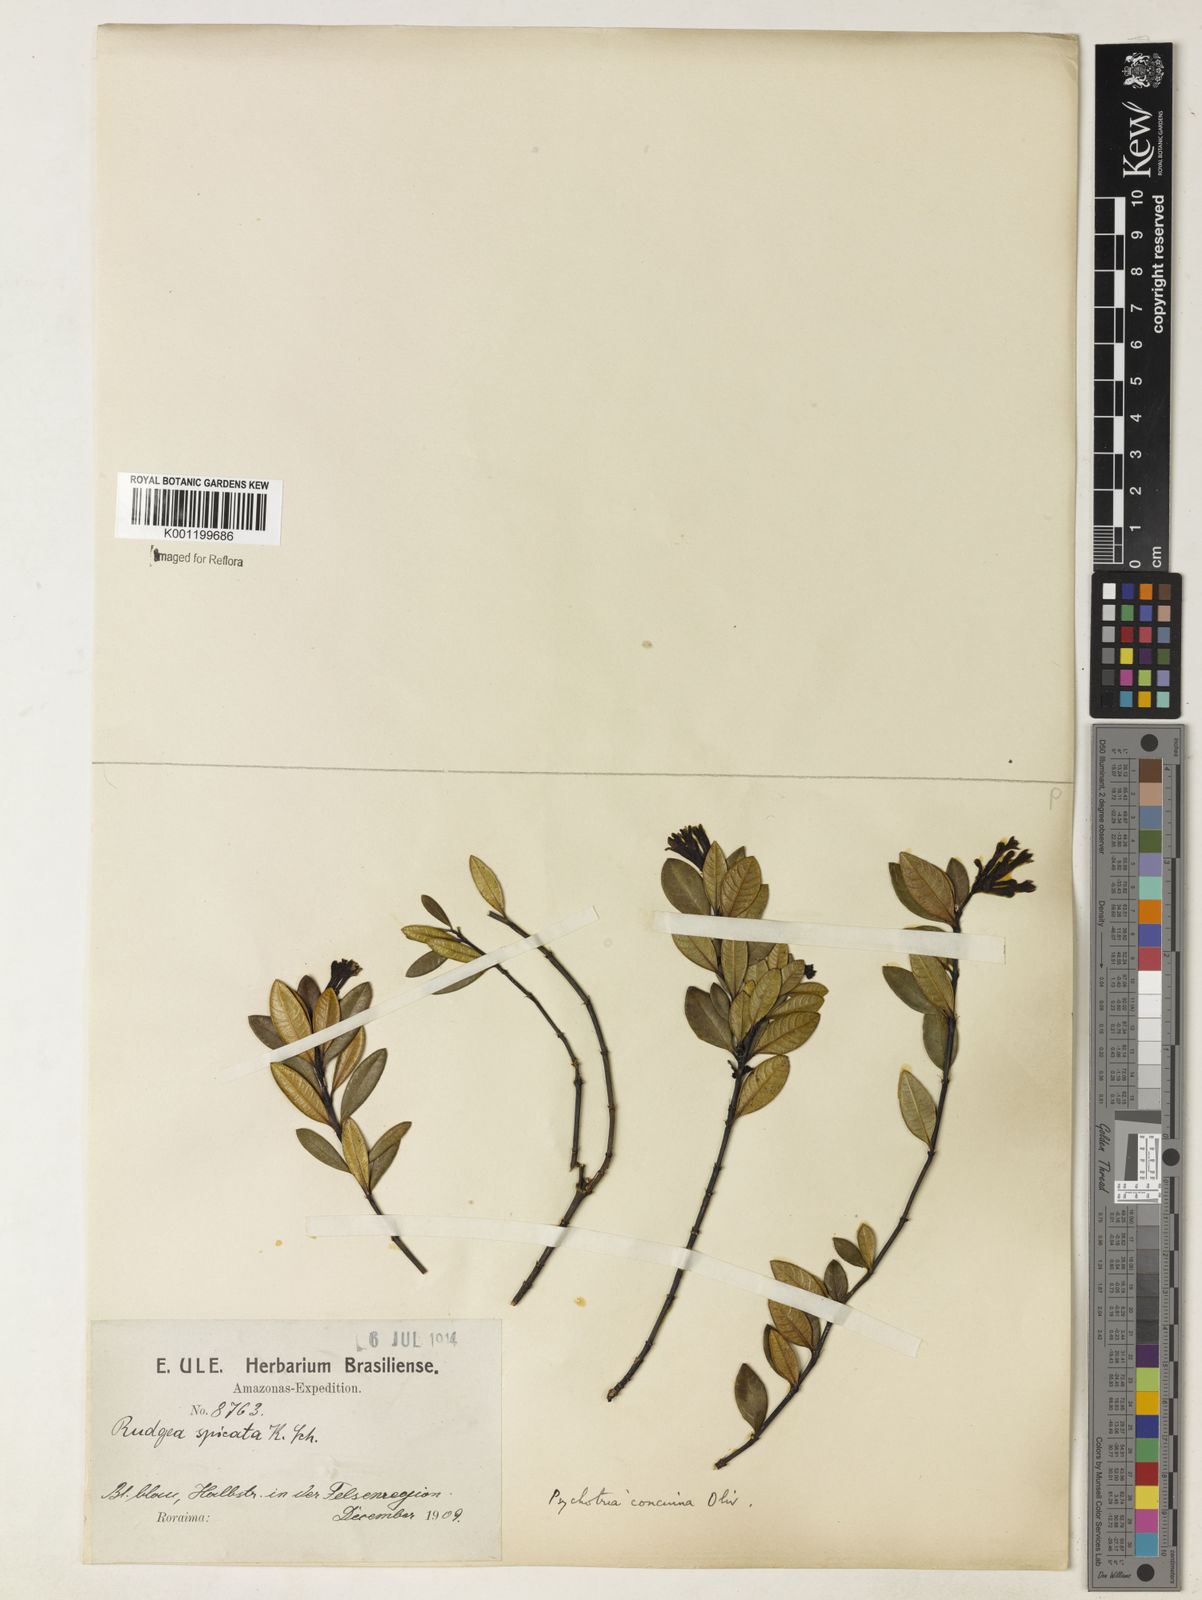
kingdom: Plantae
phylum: Tracheophyta
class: Magnoliopsida
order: Gentianales
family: Rubiaceae
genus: Palicourea
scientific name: Palicourea concinna
